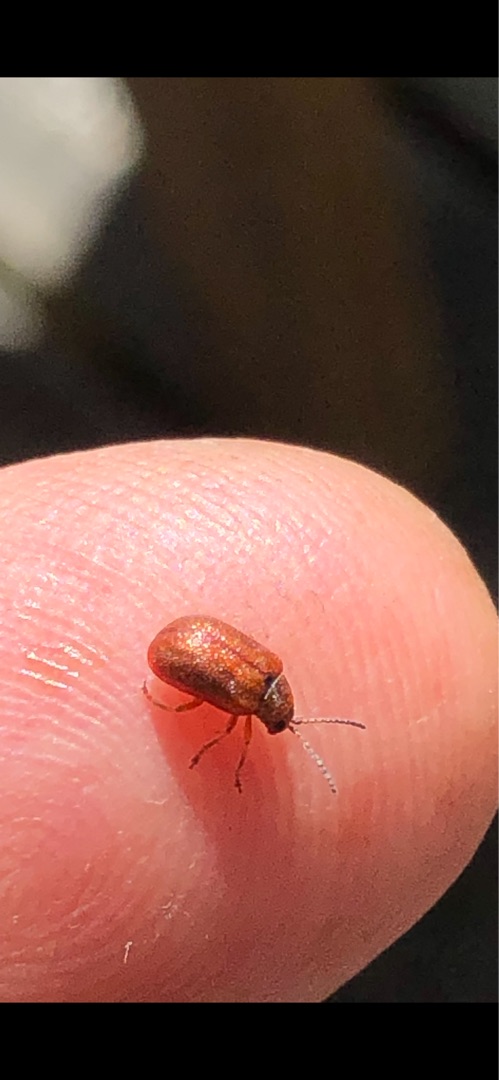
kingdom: Animalia
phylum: Arthropoda
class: Insecta
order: Coleoptera
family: Chrysomelidae
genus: Lochmaea
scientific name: Lochmaea crataegi
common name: Tjørnebladbille
